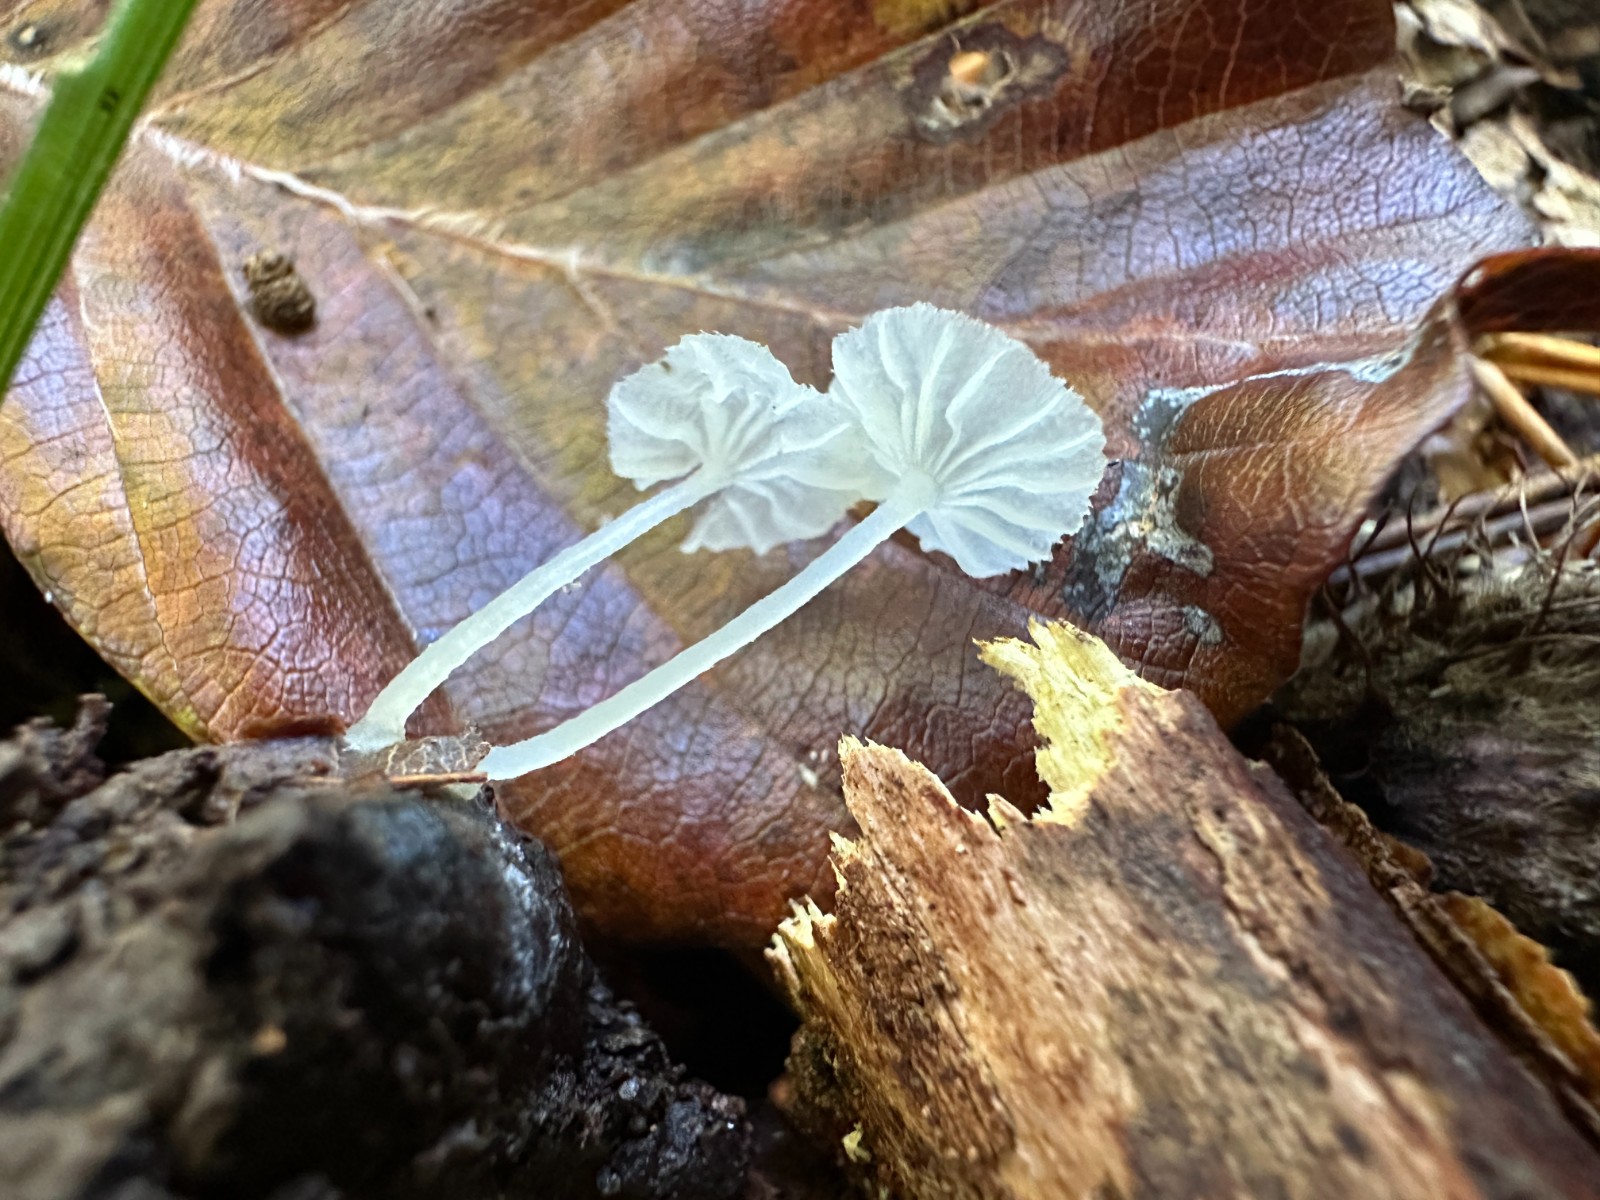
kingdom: Fungi
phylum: Basidiomycota
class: Agaricomycetes
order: Agaricales
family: Tricholomataceae
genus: Delicatula
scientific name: Delicatula integrella
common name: slørhuesvamp
